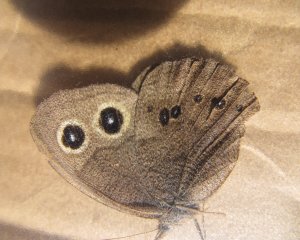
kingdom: Animalia
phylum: Arthropoda
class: Insecta
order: Lepidoptera
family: Nymphalidae
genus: Cercyonis
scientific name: Cercyonis pegala
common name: Common Wood-Nymph
